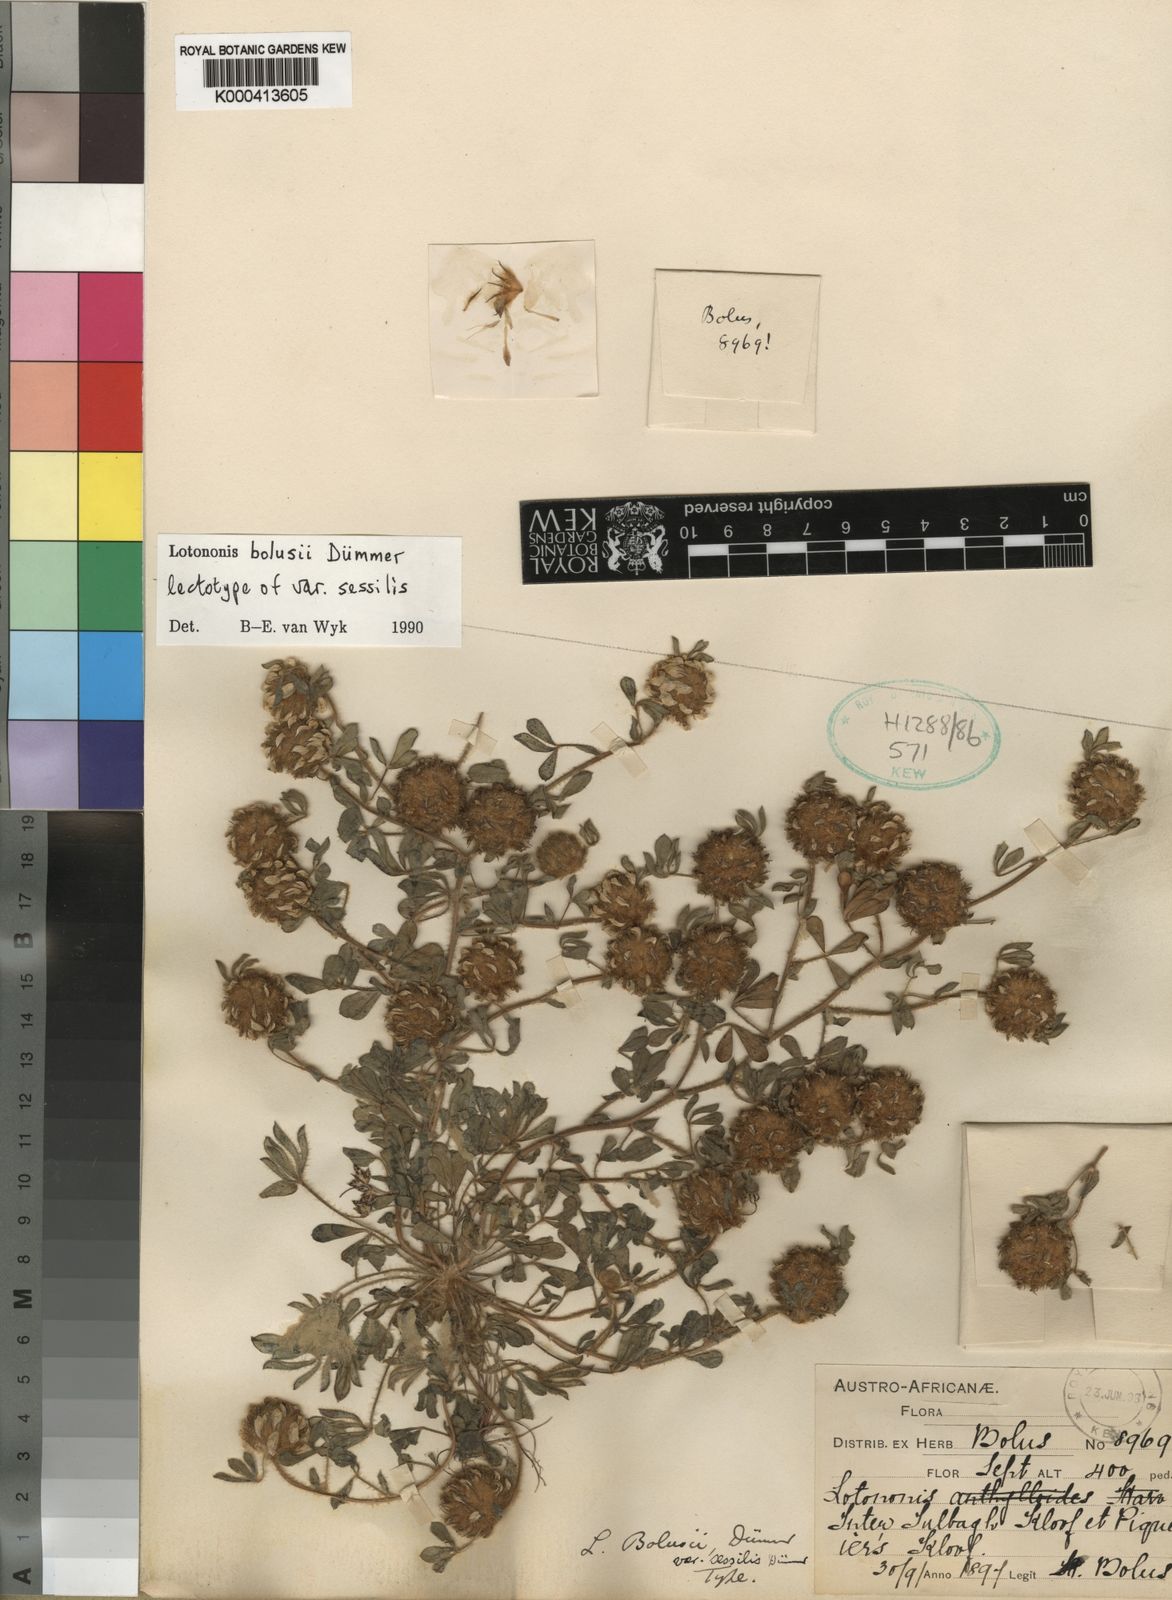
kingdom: Plantae
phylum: Tracheophyta
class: Magnoliopsida
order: Fabales
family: Fabaceae
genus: Leobordea
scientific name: Leobordea lanata
